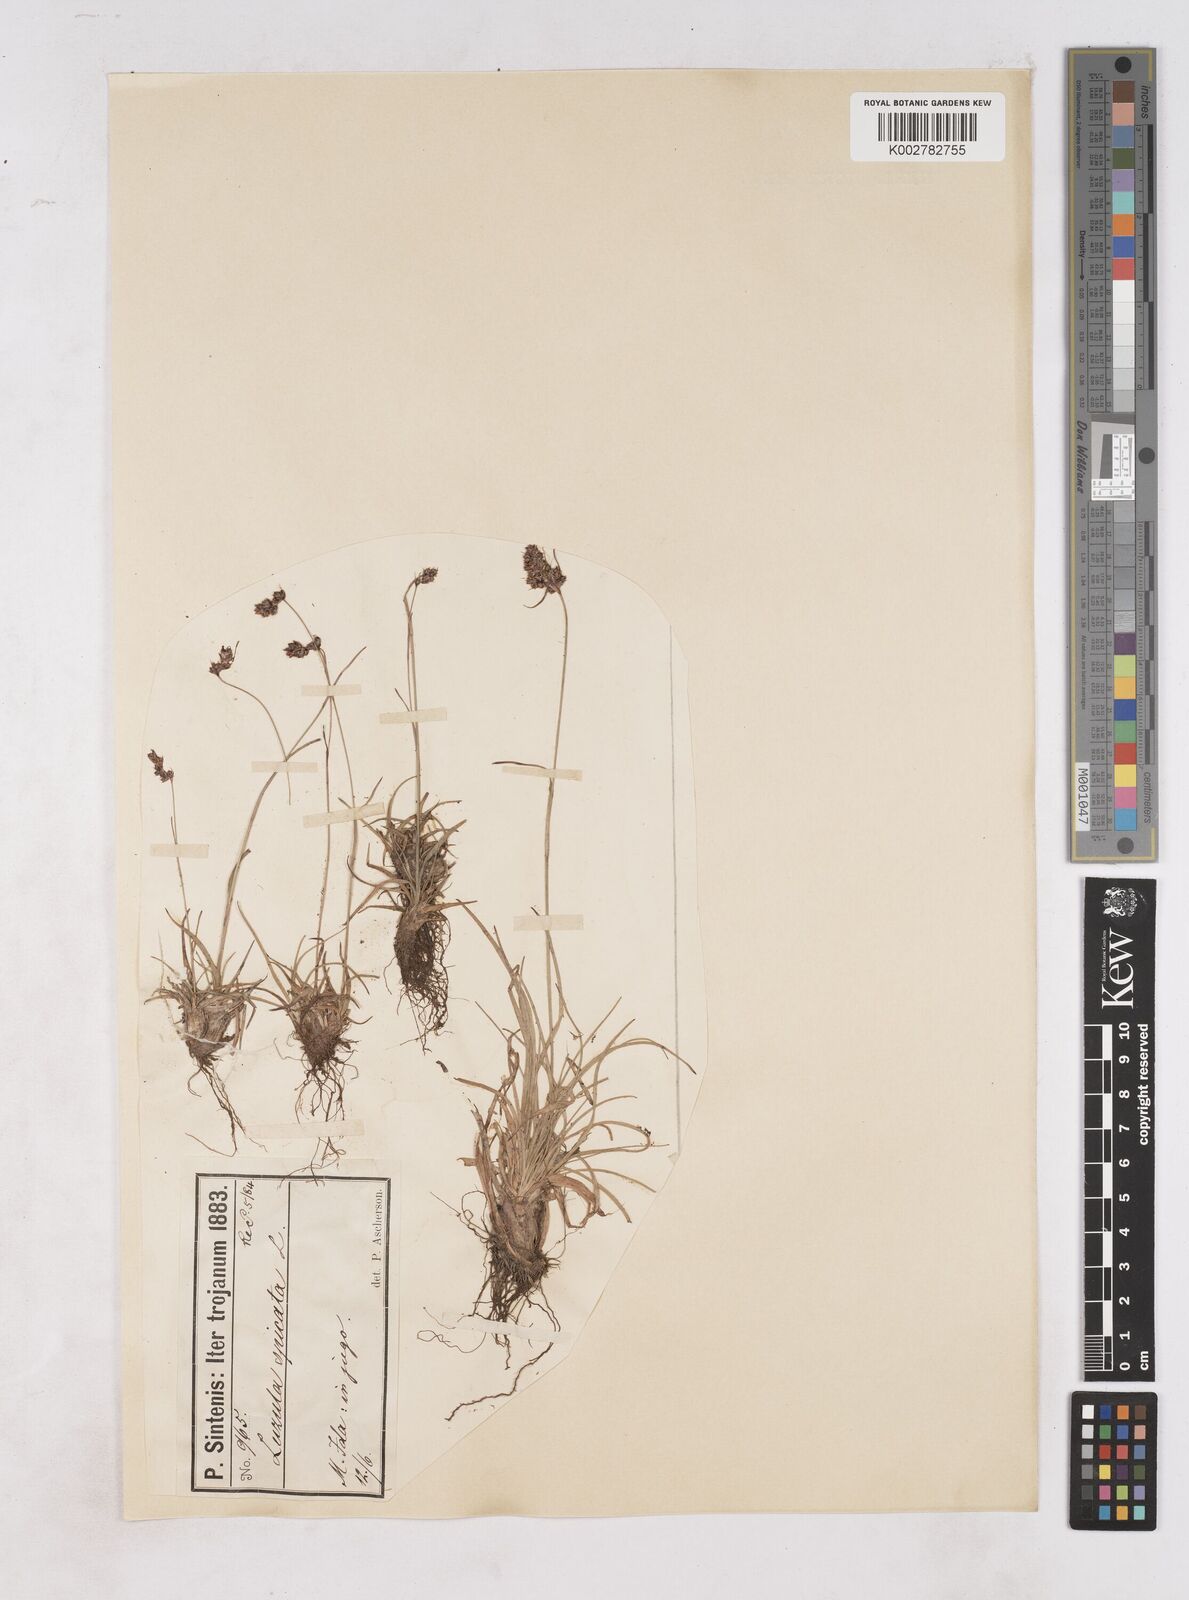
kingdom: Plantae
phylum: Tracheophyta
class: Liliopsida
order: Poales
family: Juncaceae
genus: Luzula
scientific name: Luzula spicata
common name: Spiked wood-rush
